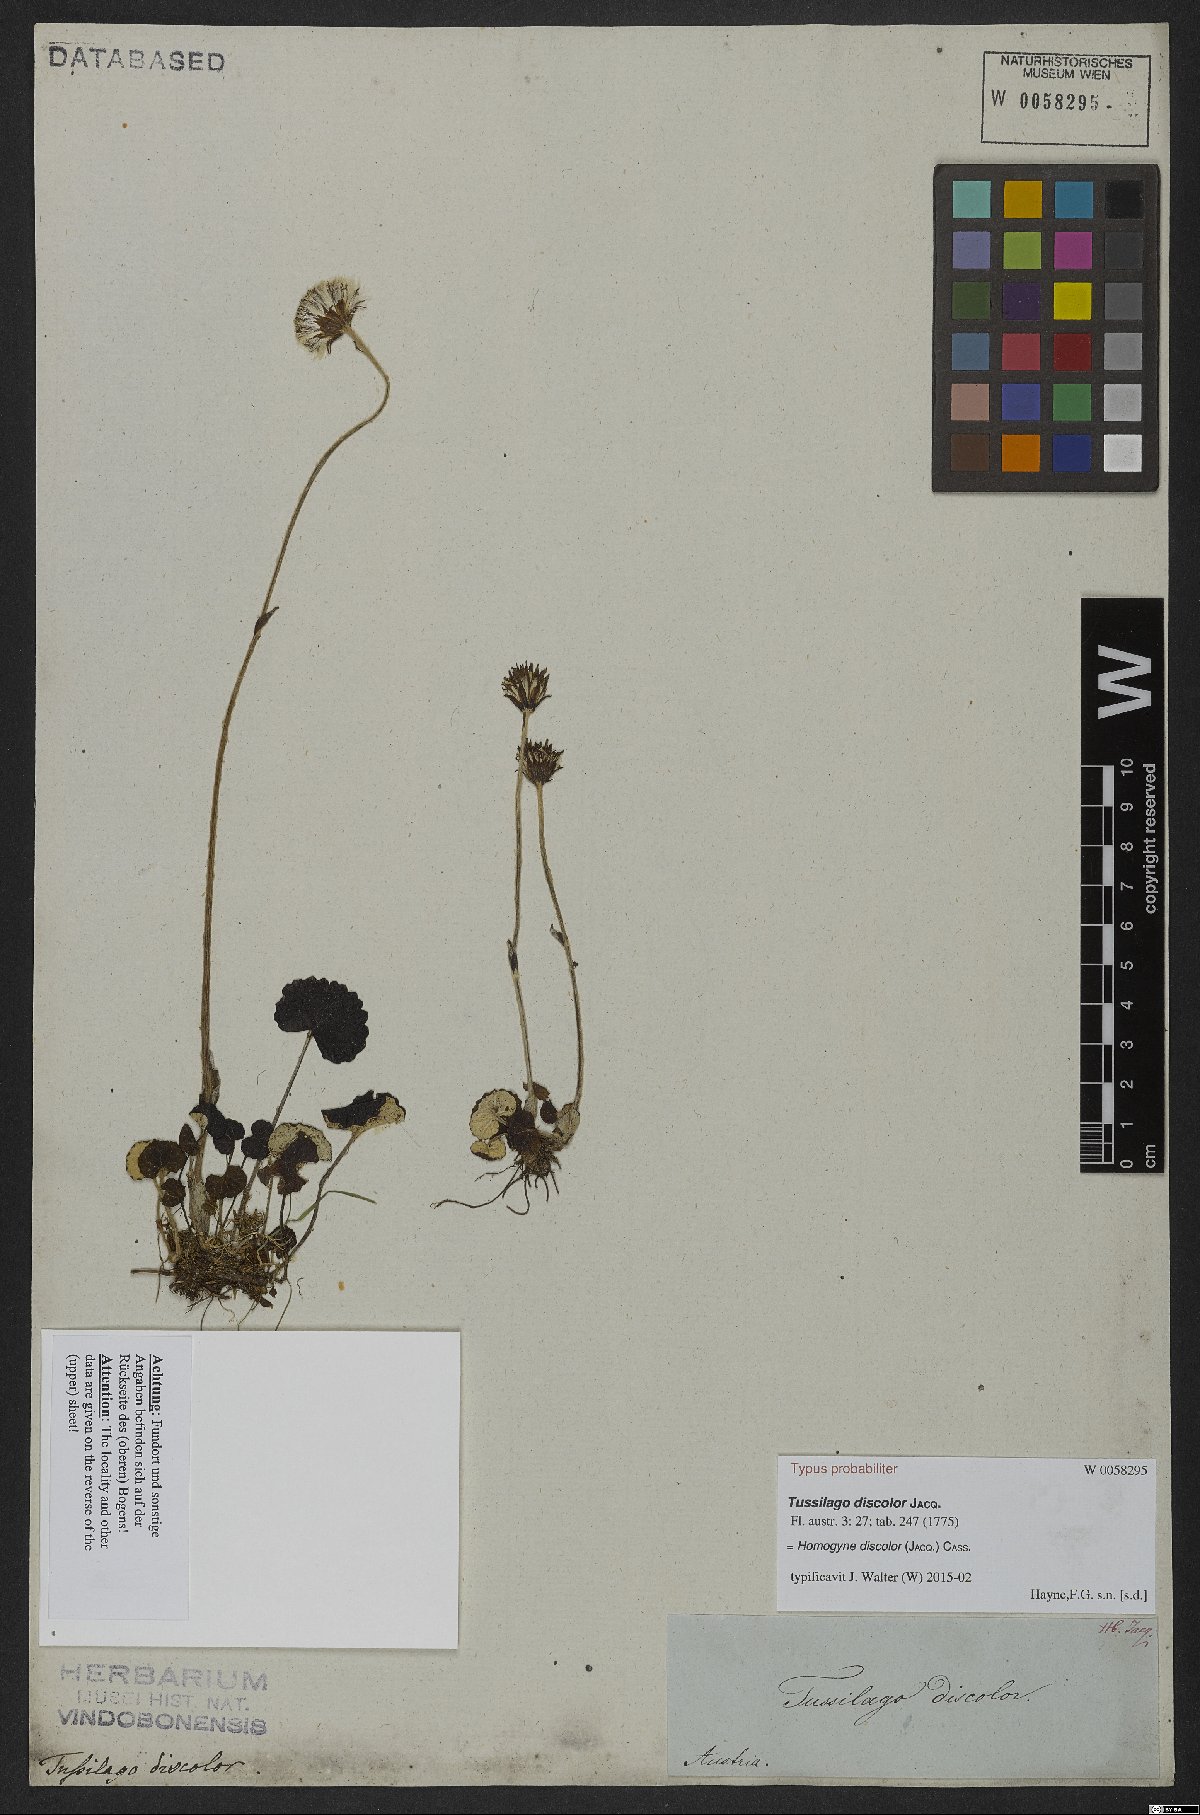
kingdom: Plantae
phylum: Tracheophyta
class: Magnoliopsida
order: Asterales
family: Asteraceae
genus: Homogyne
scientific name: Homogyne discolor
